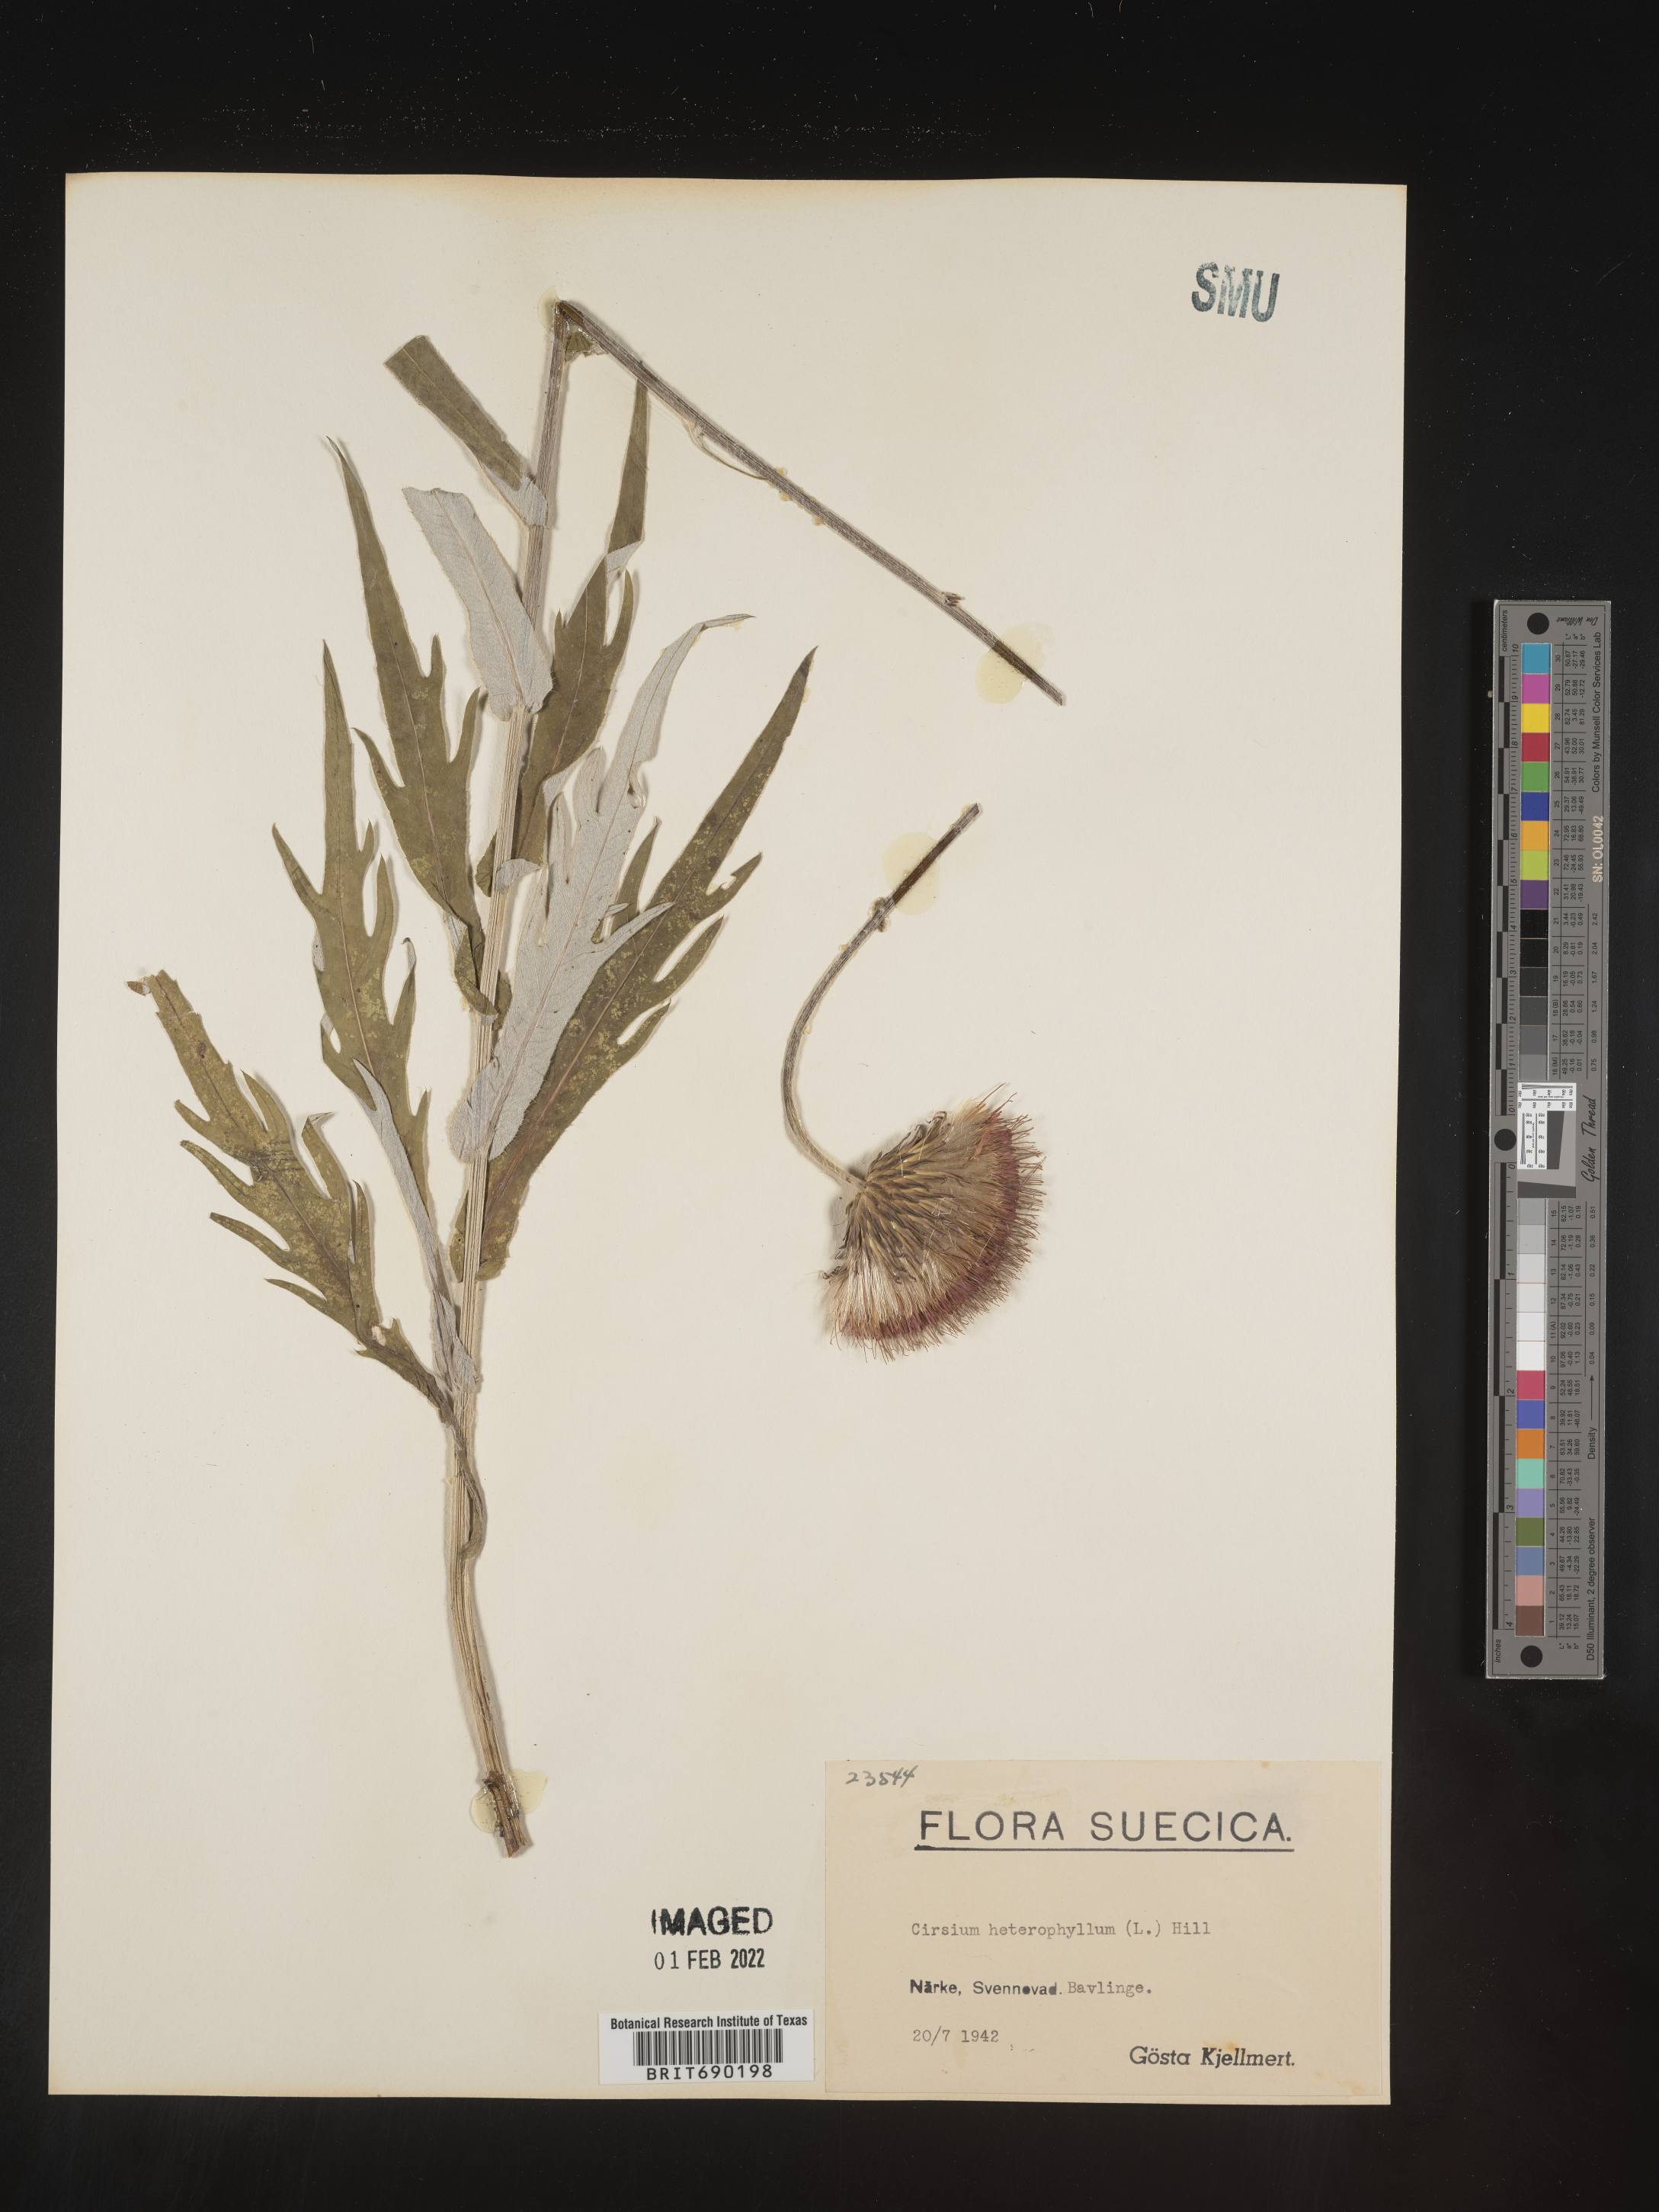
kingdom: Plantae
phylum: Tracheophyta
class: Magnoliopsida
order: Asterales
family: Asteraceae
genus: Cirsium
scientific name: Cirsium
